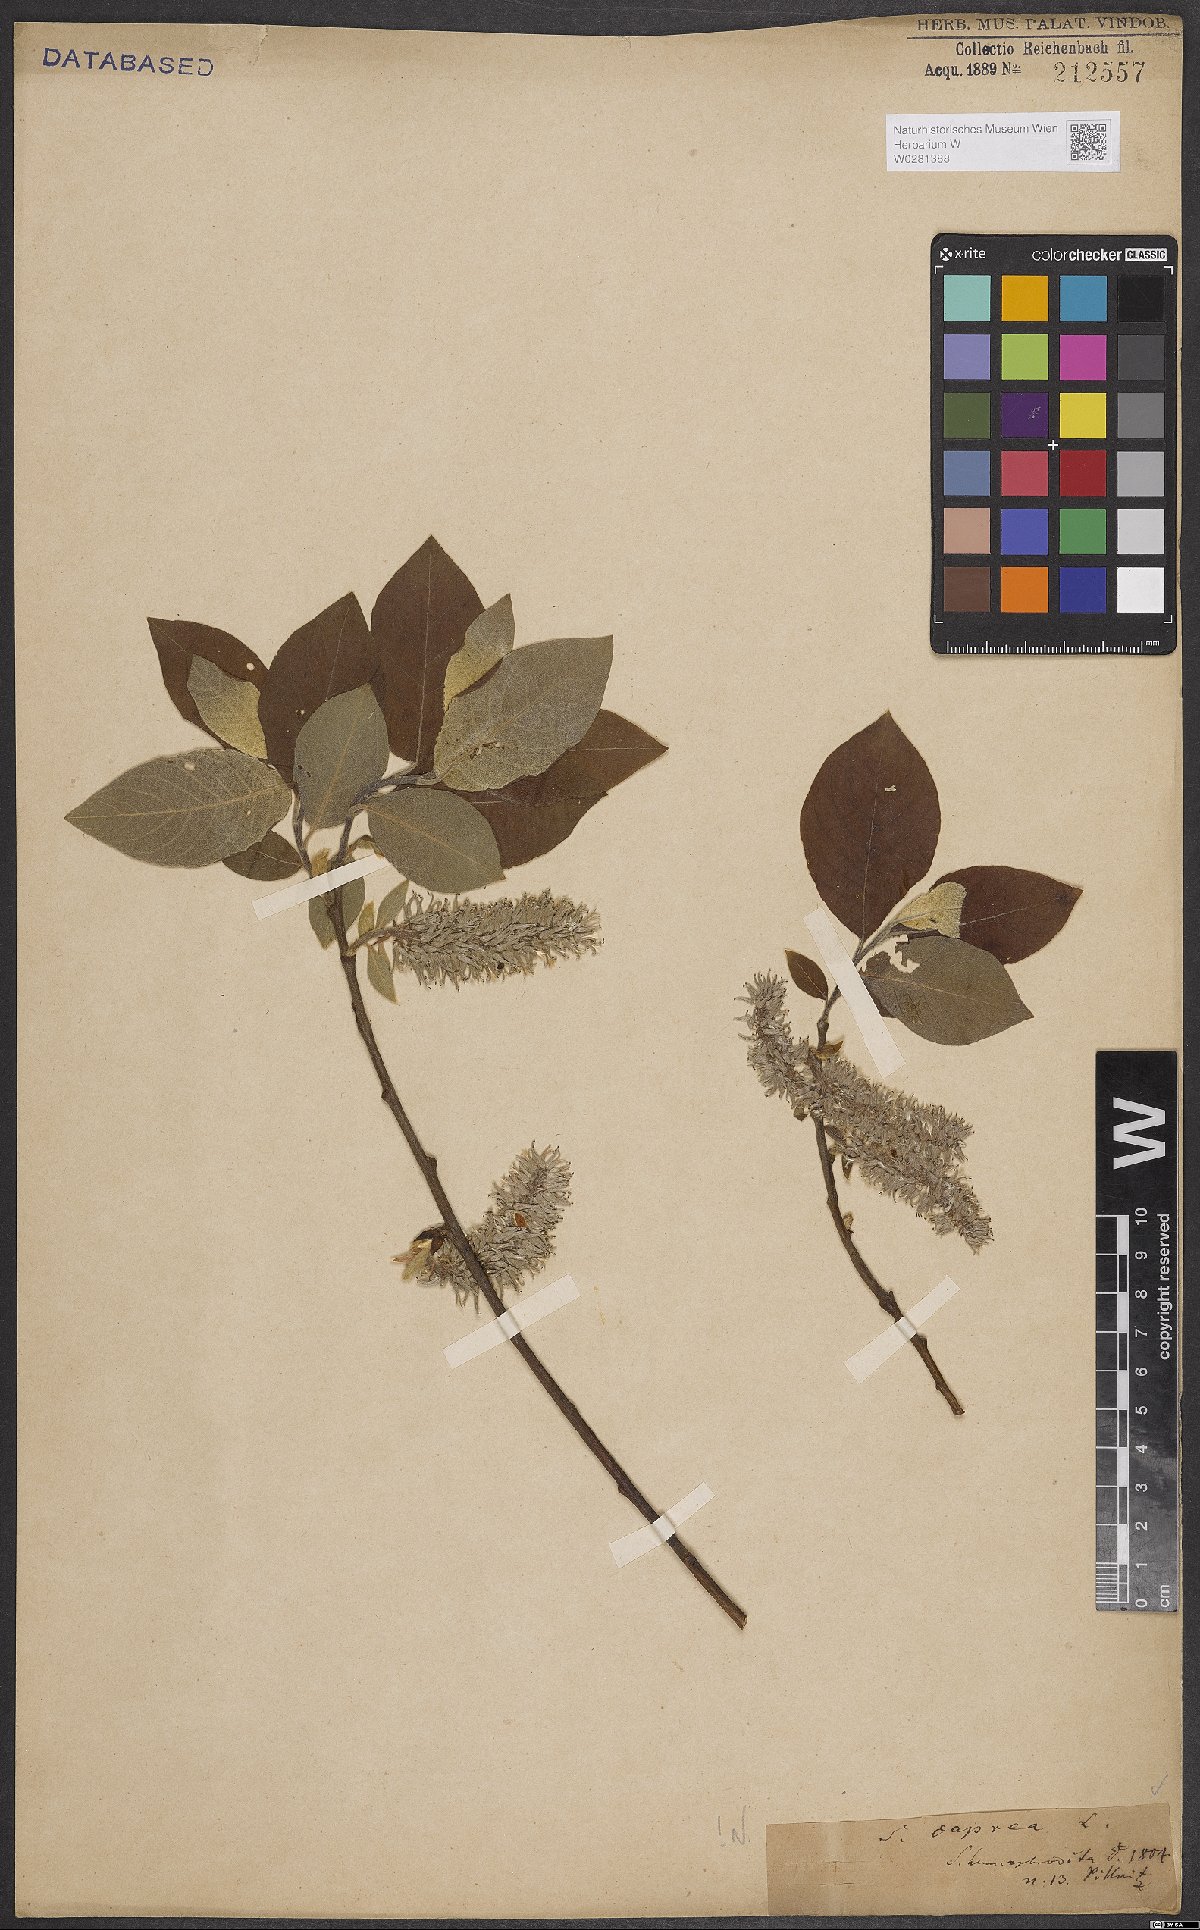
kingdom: Plantae
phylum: Tracheophyta
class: Magnoliopsida
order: Malpighiales
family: Salicaceae
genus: Salix
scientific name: Salix caprea
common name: Goat willow
